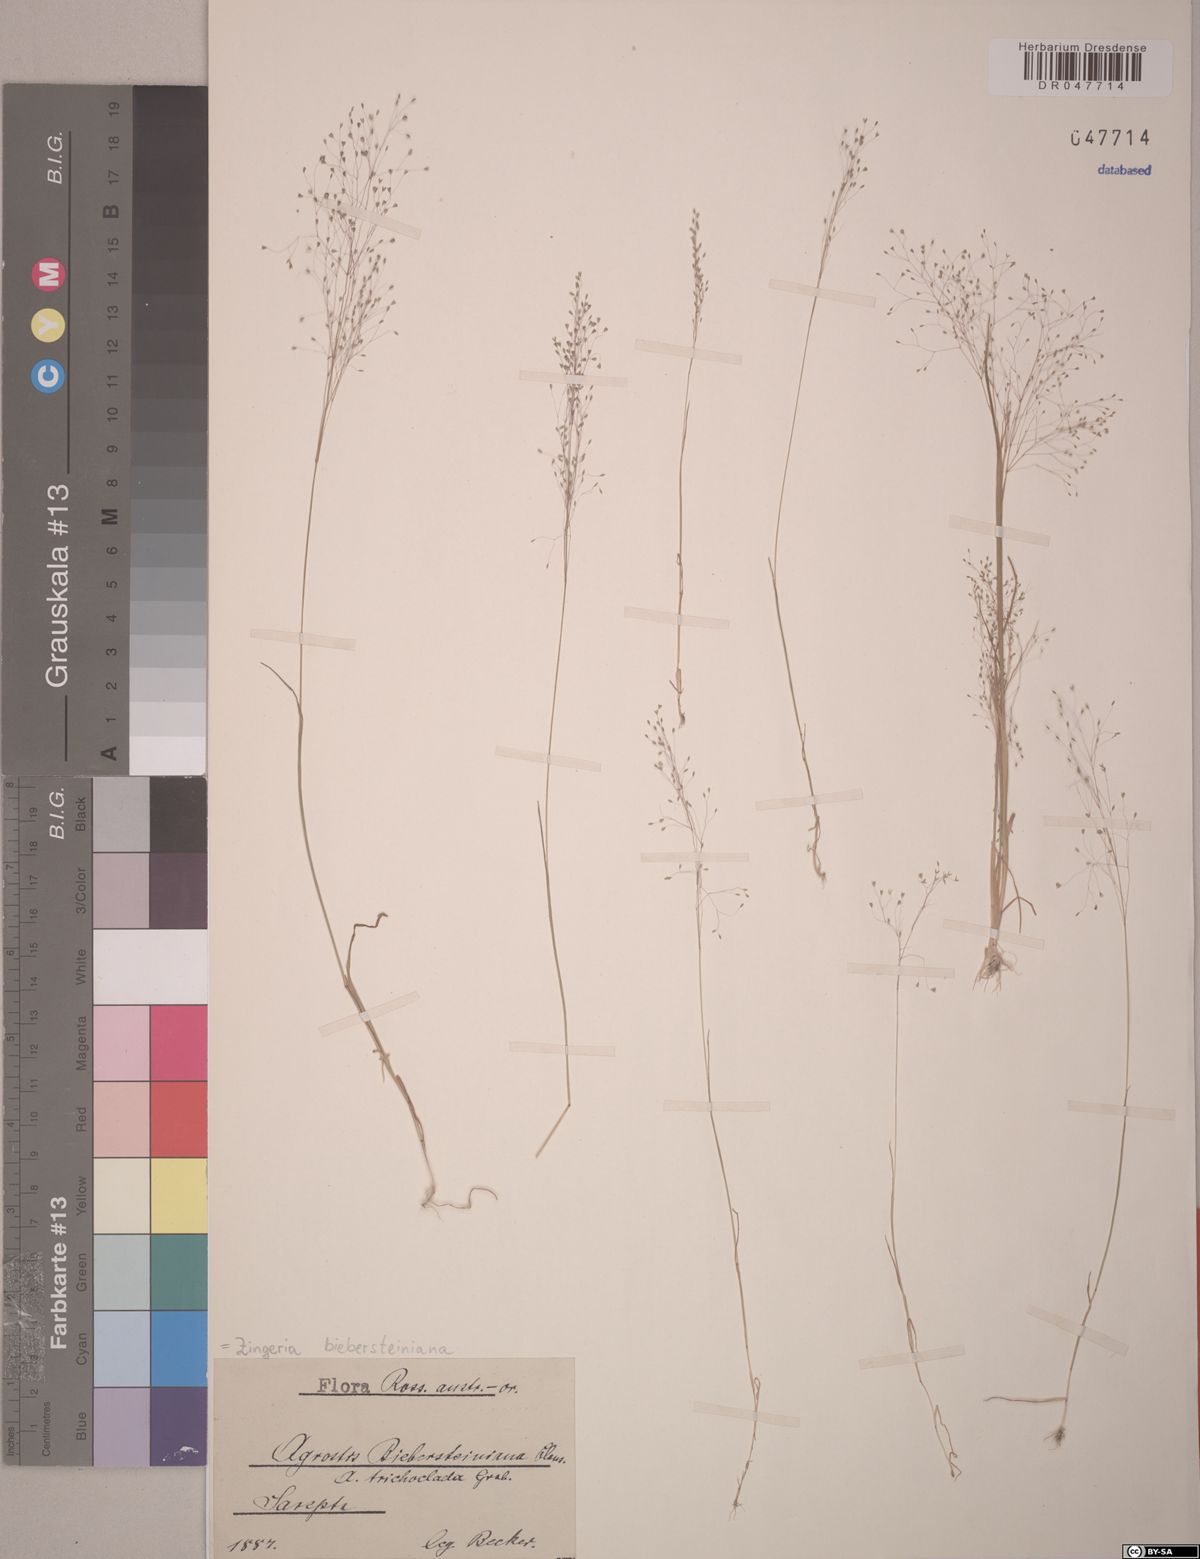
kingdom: Plantae
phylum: Tracheophyta
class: Liliopsida
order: Poales
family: Poaceae
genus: Colpodium
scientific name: Colpodium biebersteinianum
